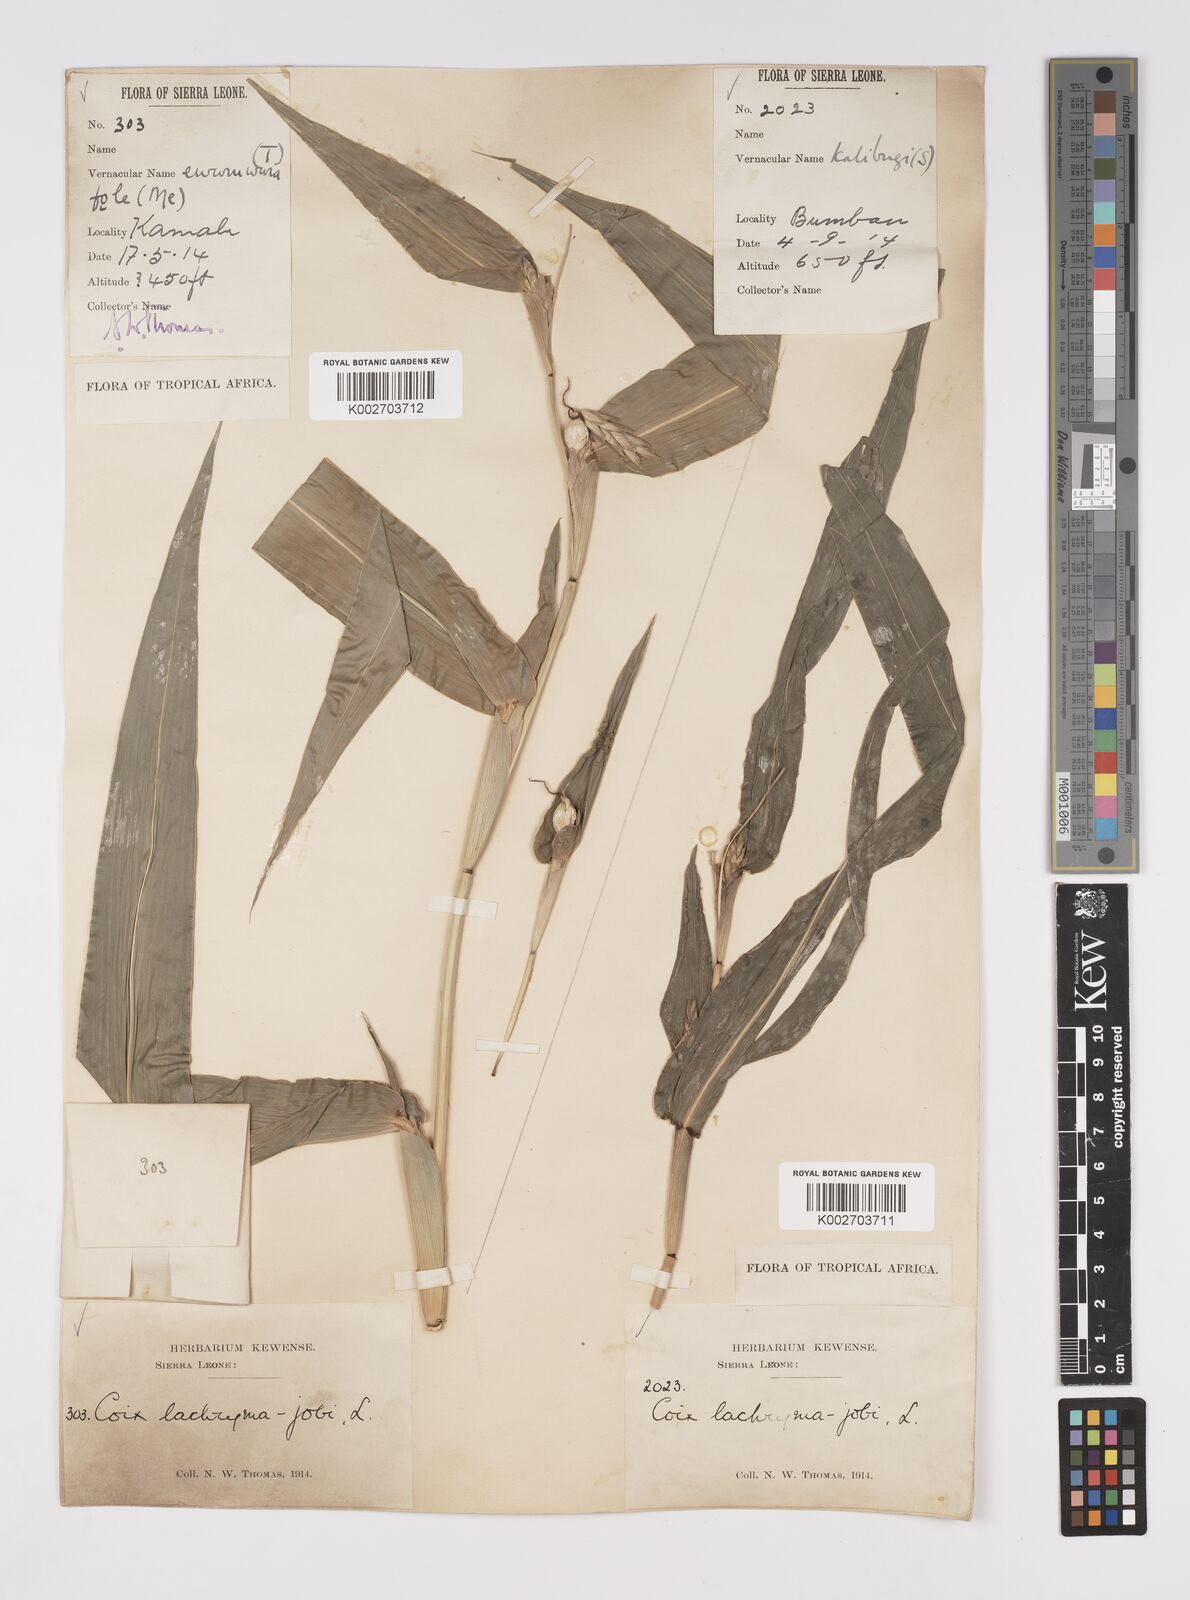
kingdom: Plantae
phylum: Tracheophyta
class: Liliopsida
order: Poales
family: Poaceae
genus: Coix
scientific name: Coix lacryma-jobi
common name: Job's tears
